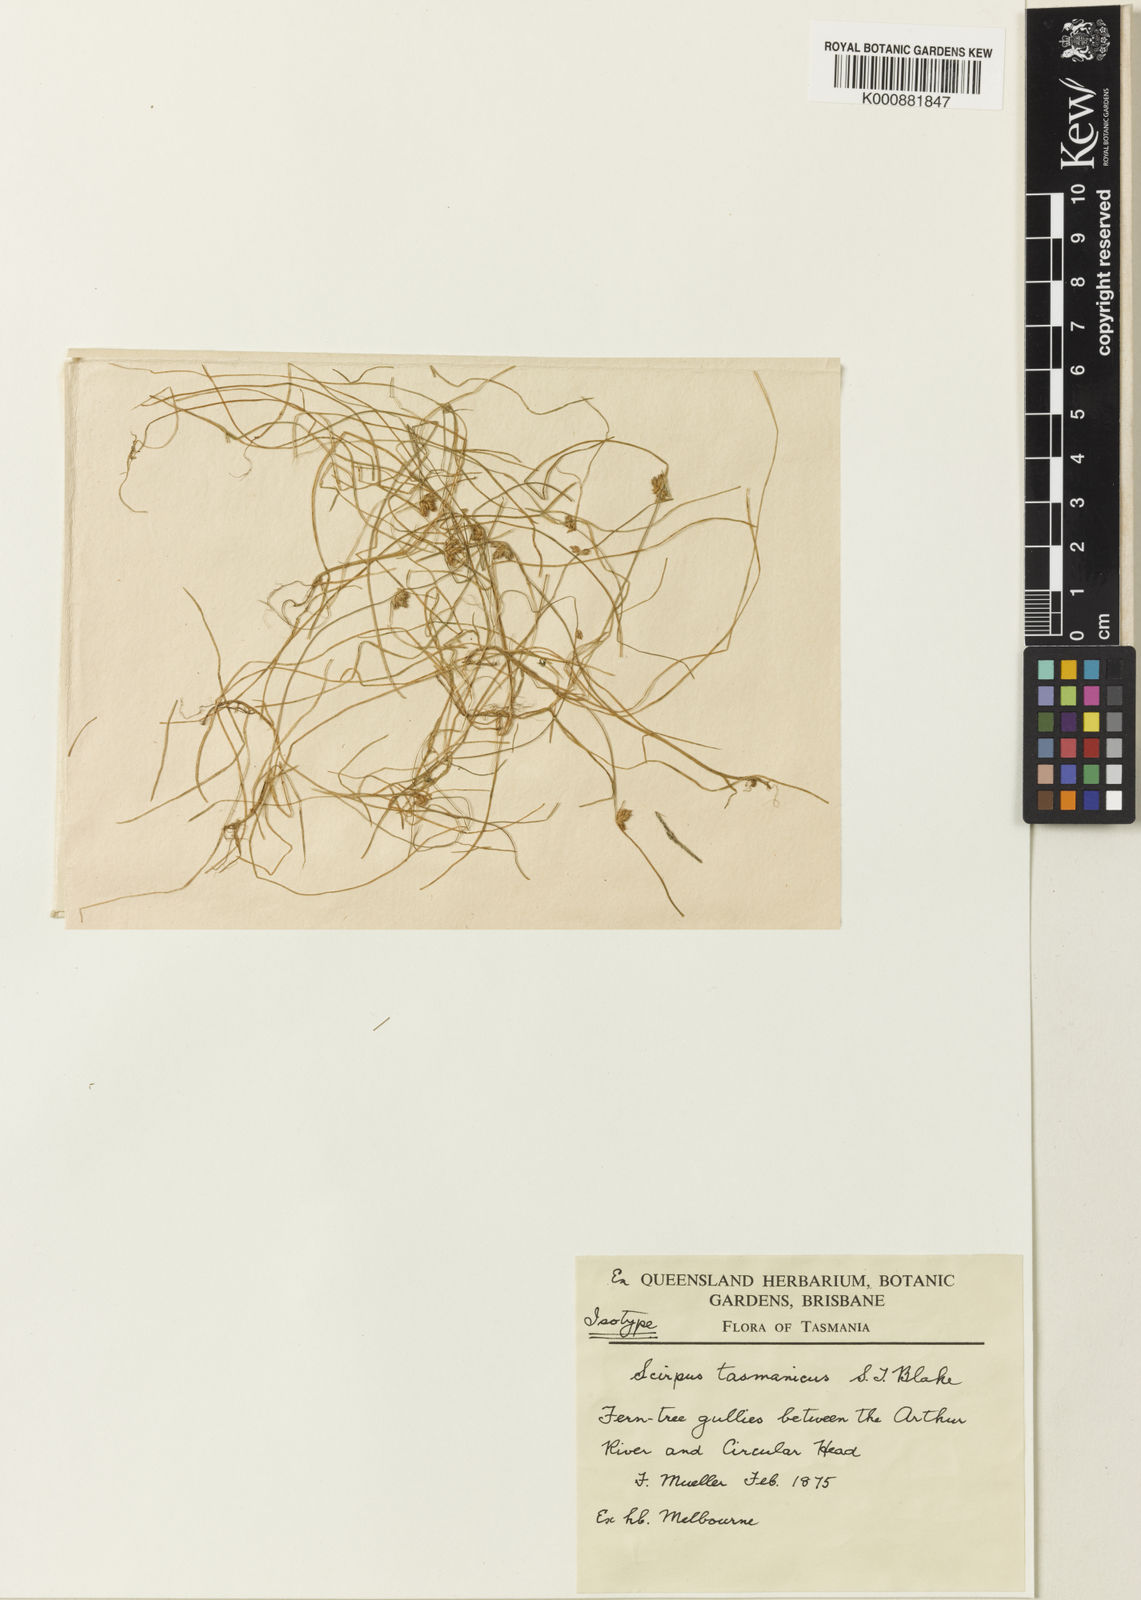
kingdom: Plantae
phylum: Tracheophyta
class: Liliopsida
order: Poales
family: Cyperaceae
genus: Isolepis
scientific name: Isolepis tasmanica
